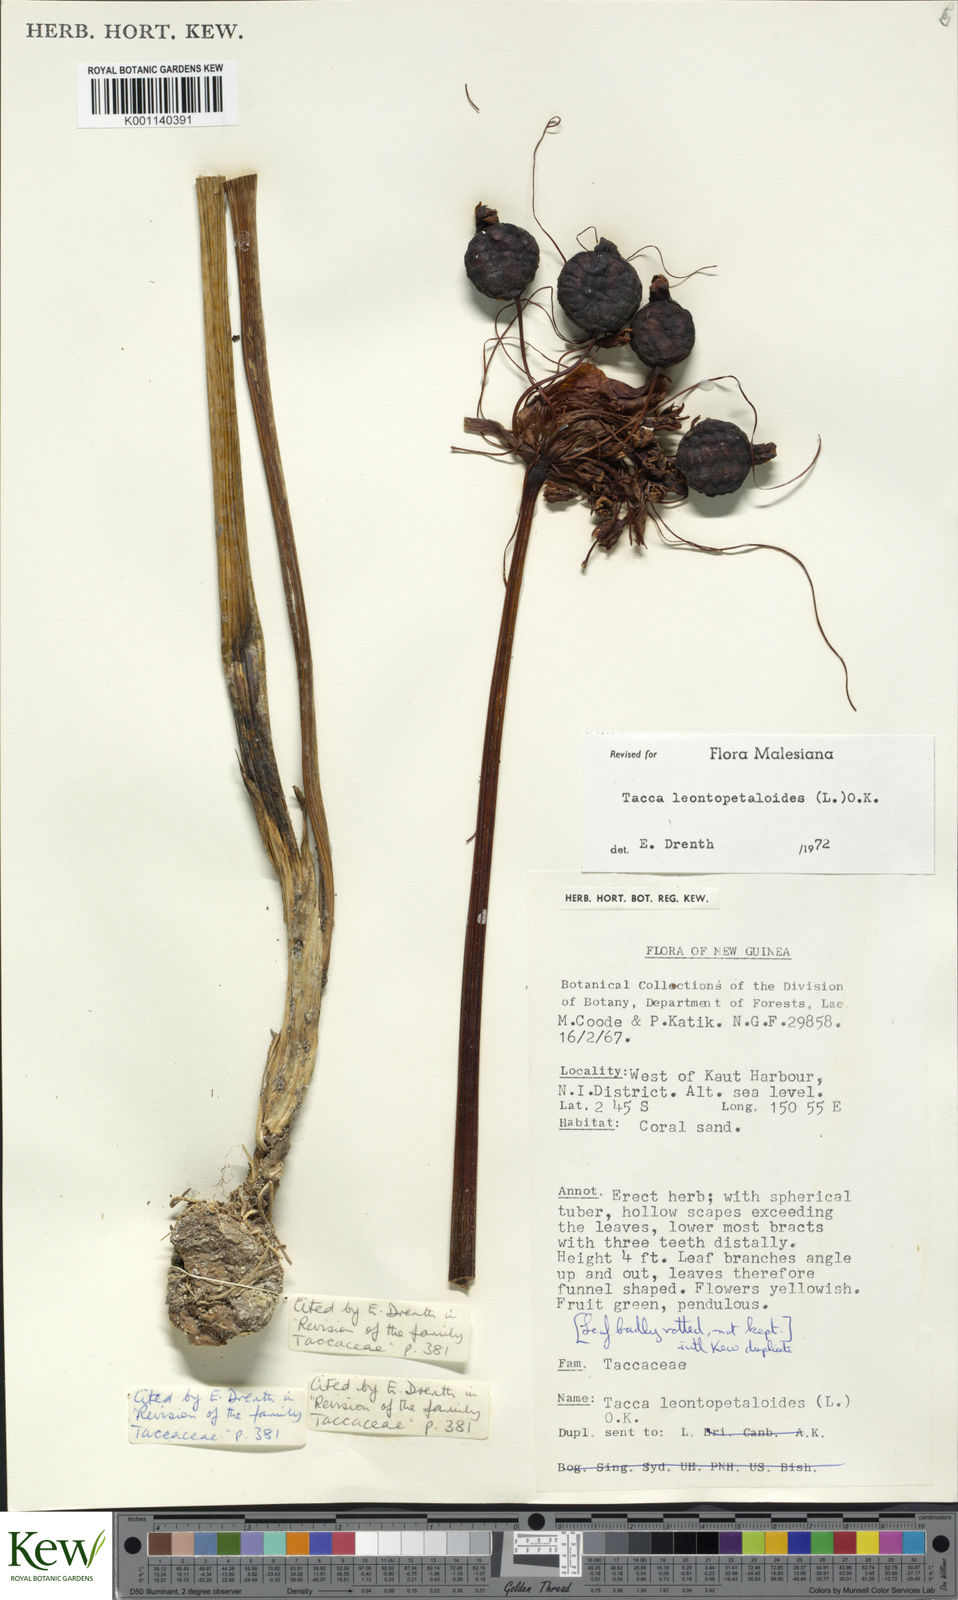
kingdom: Plantae
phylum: Tracheophyta
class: Liliopsida
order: Dioscoreales
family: Dioscoreaceae
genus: Tacca
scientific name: Tacca leontopetaloides
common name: Arrowroot
